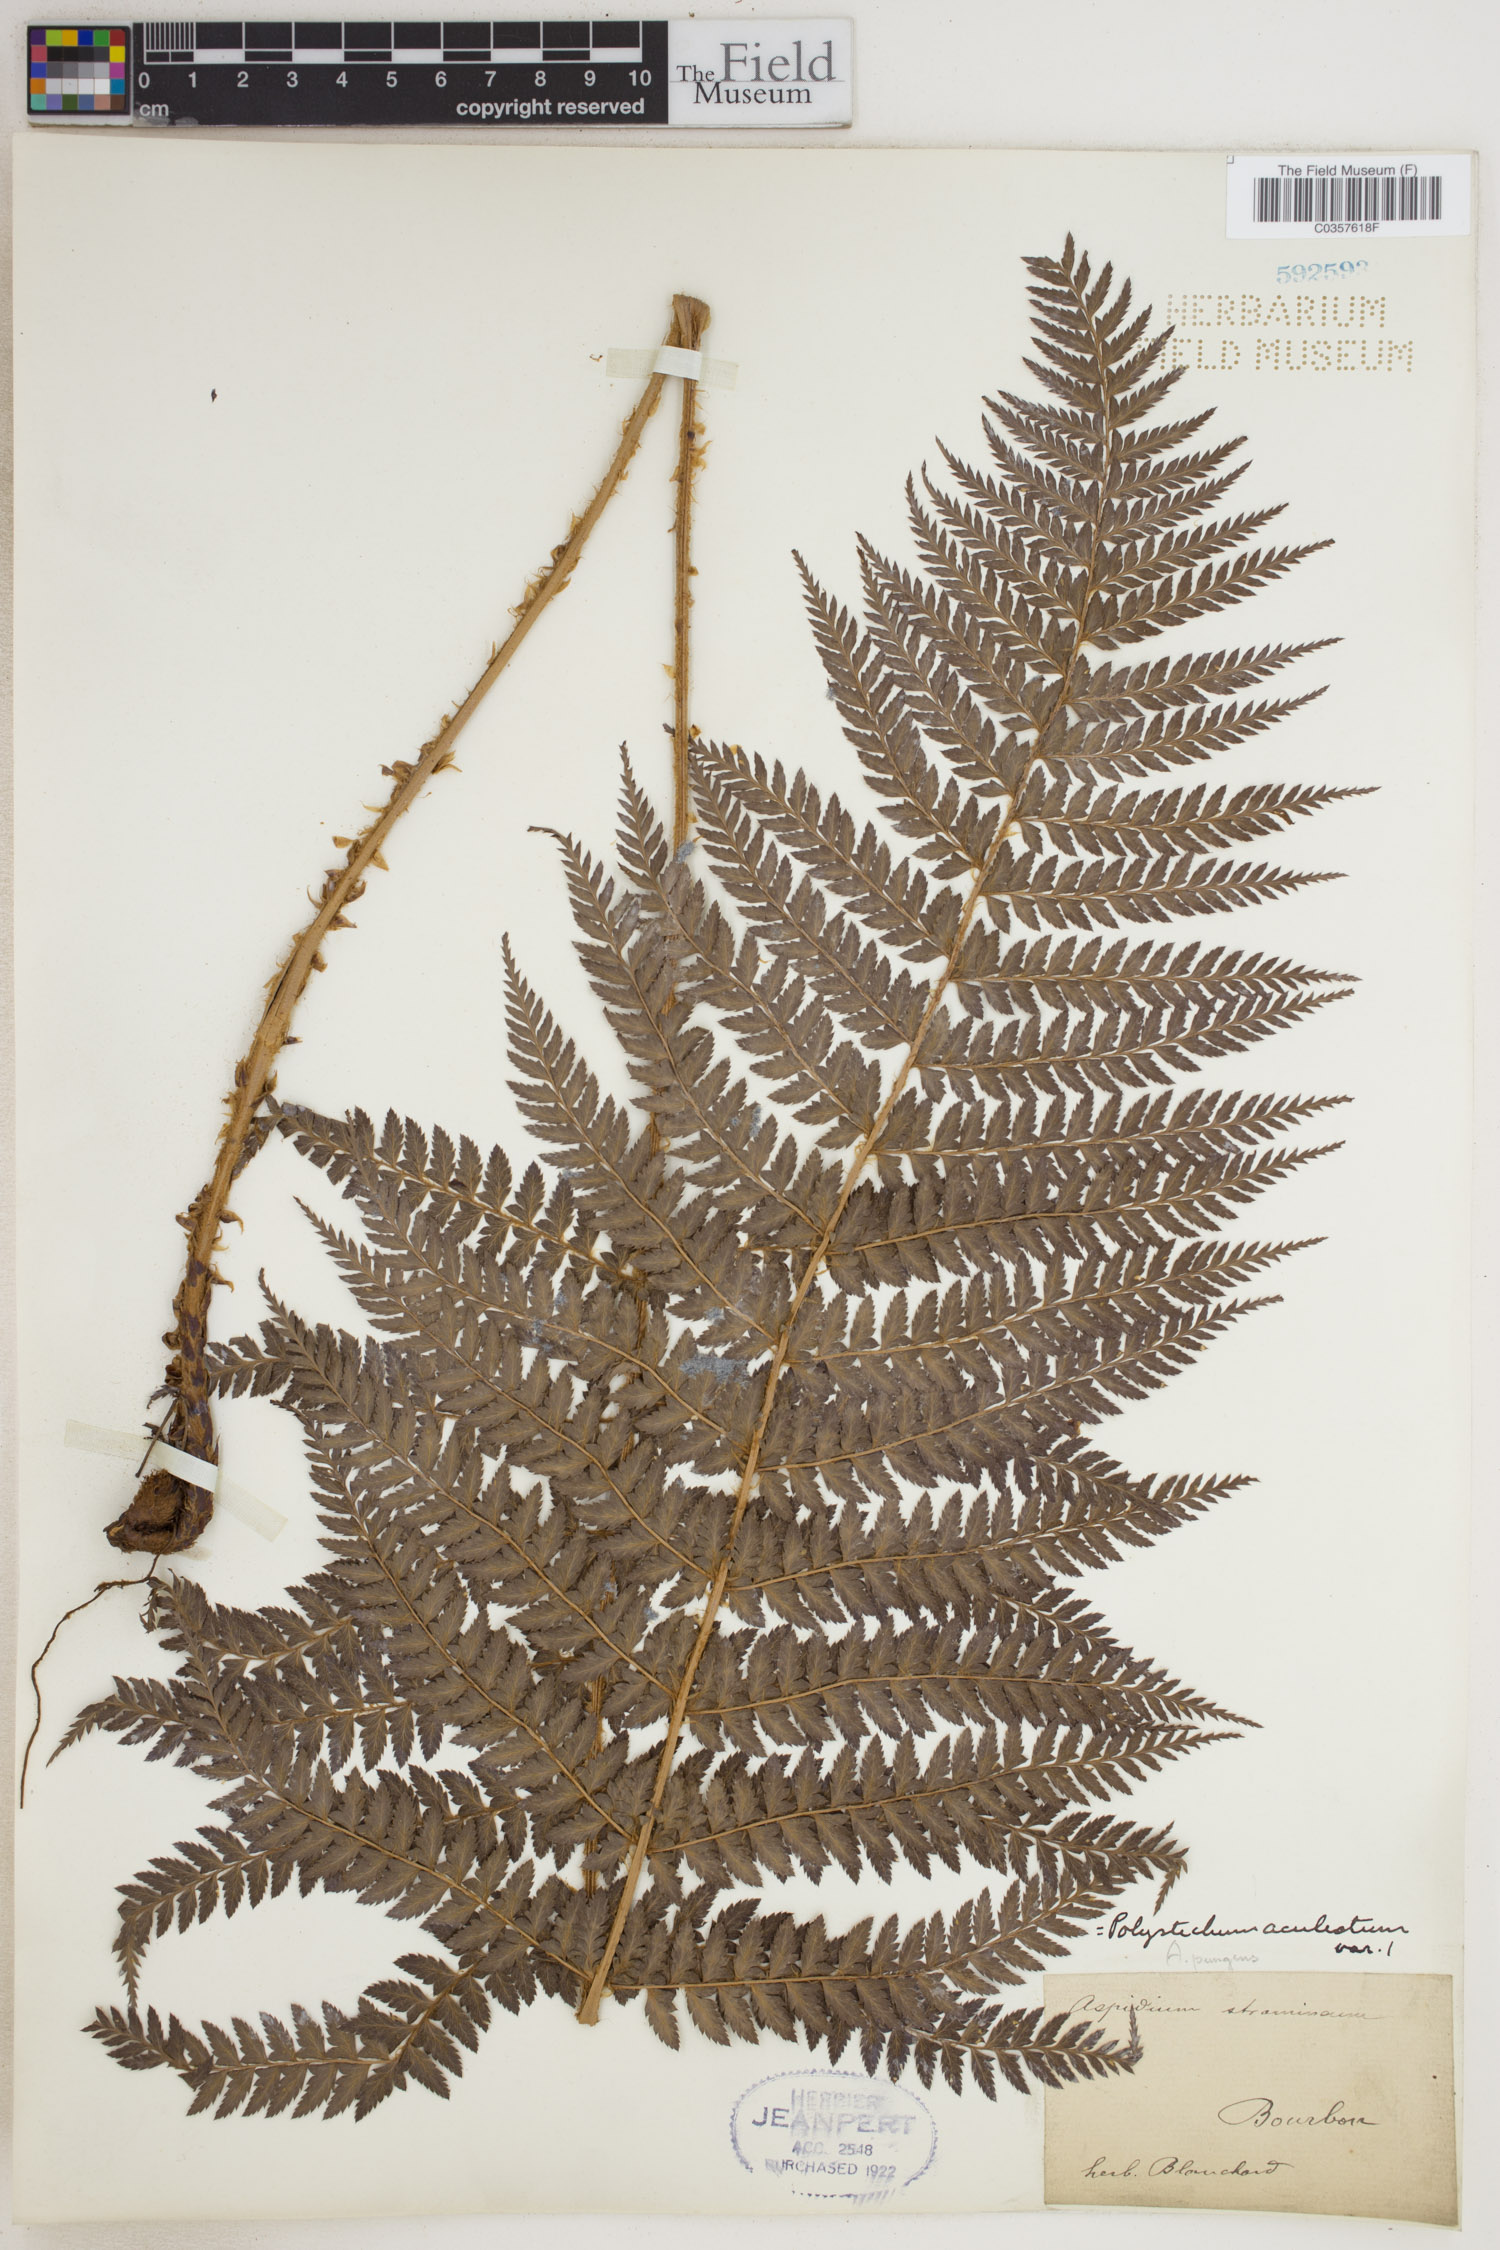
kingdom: Plantae
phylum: Tracheophyta
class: Polypodiopsida
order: Polypodiales
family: Dryopteridaceae
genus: Polystichum
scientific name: Polystichum aculeatum
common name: Hard shield-fern
